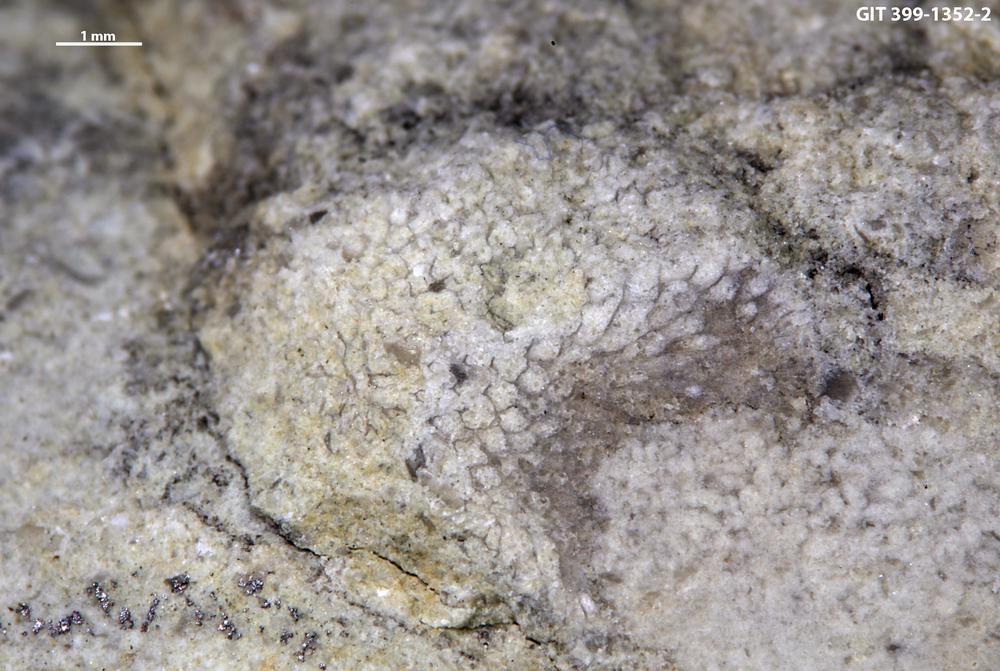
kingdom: Animalia
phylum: Bryozoa
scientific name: Bryozoa
